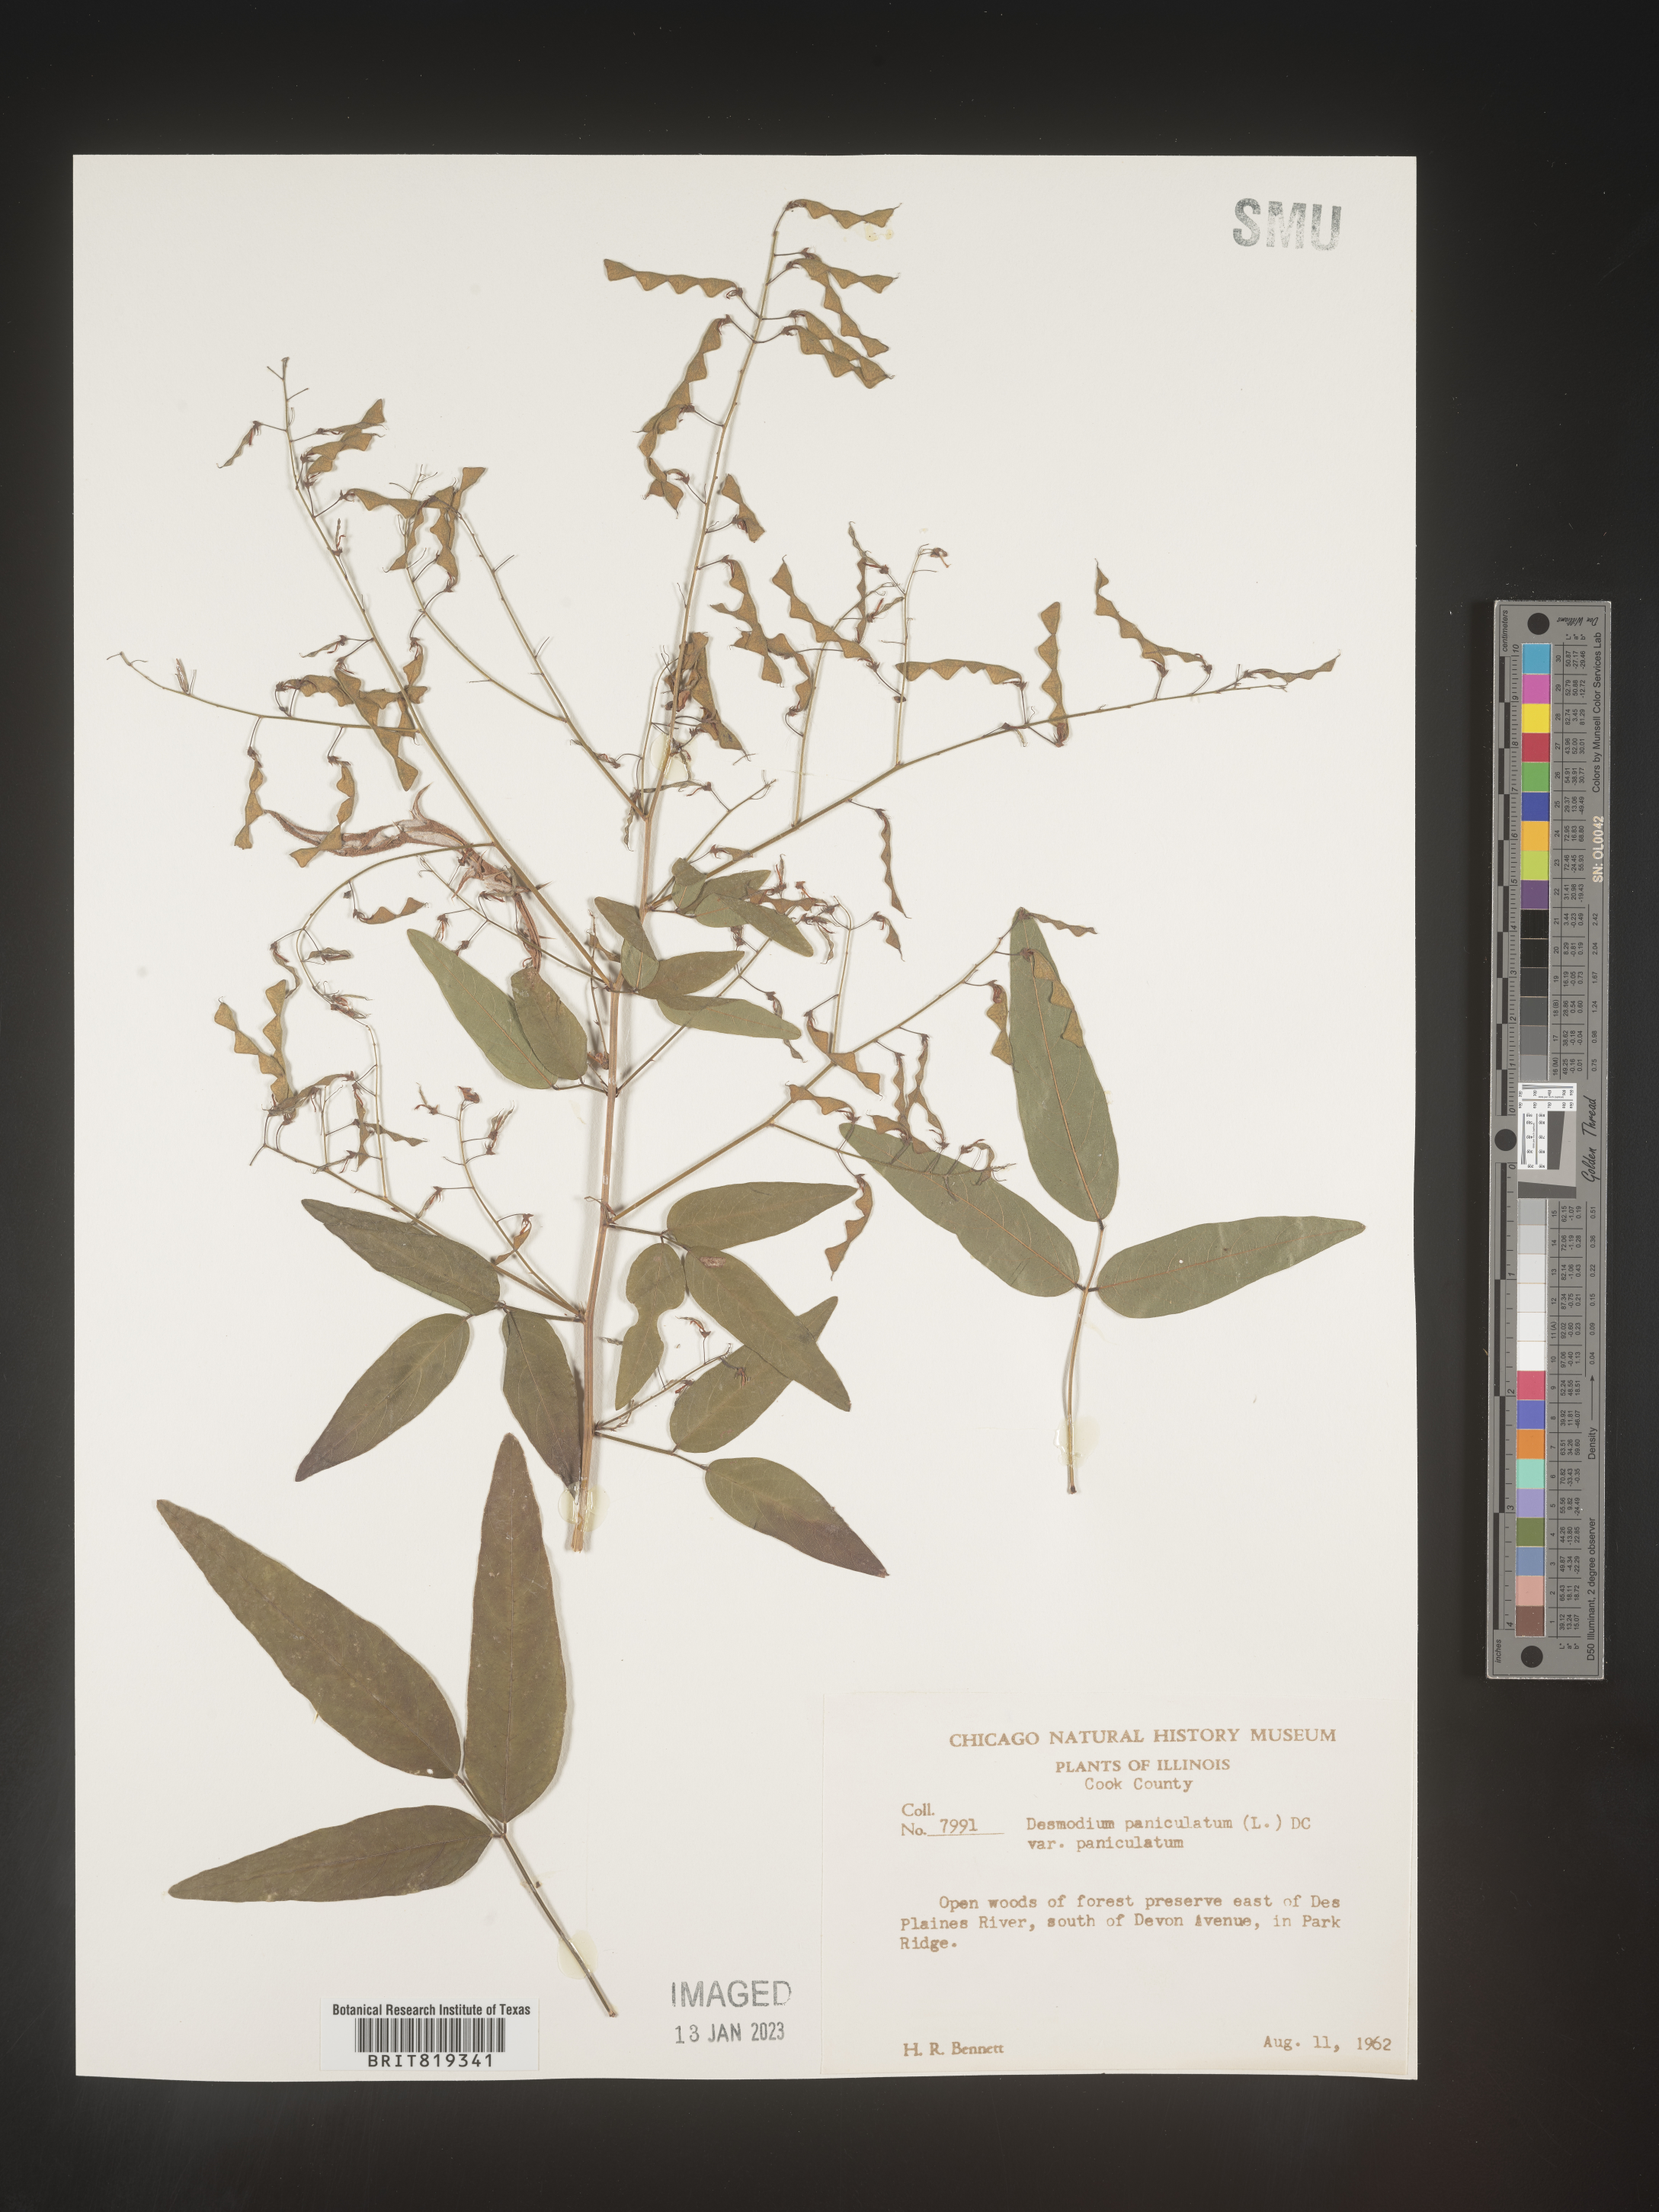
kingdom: Plantae
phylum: Tracheophyta
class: Magnoliopsida
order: Fabales
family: Fabaceae
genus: Desmodium
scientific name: Desmodium paniculatum
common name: Panicled tick-clover
